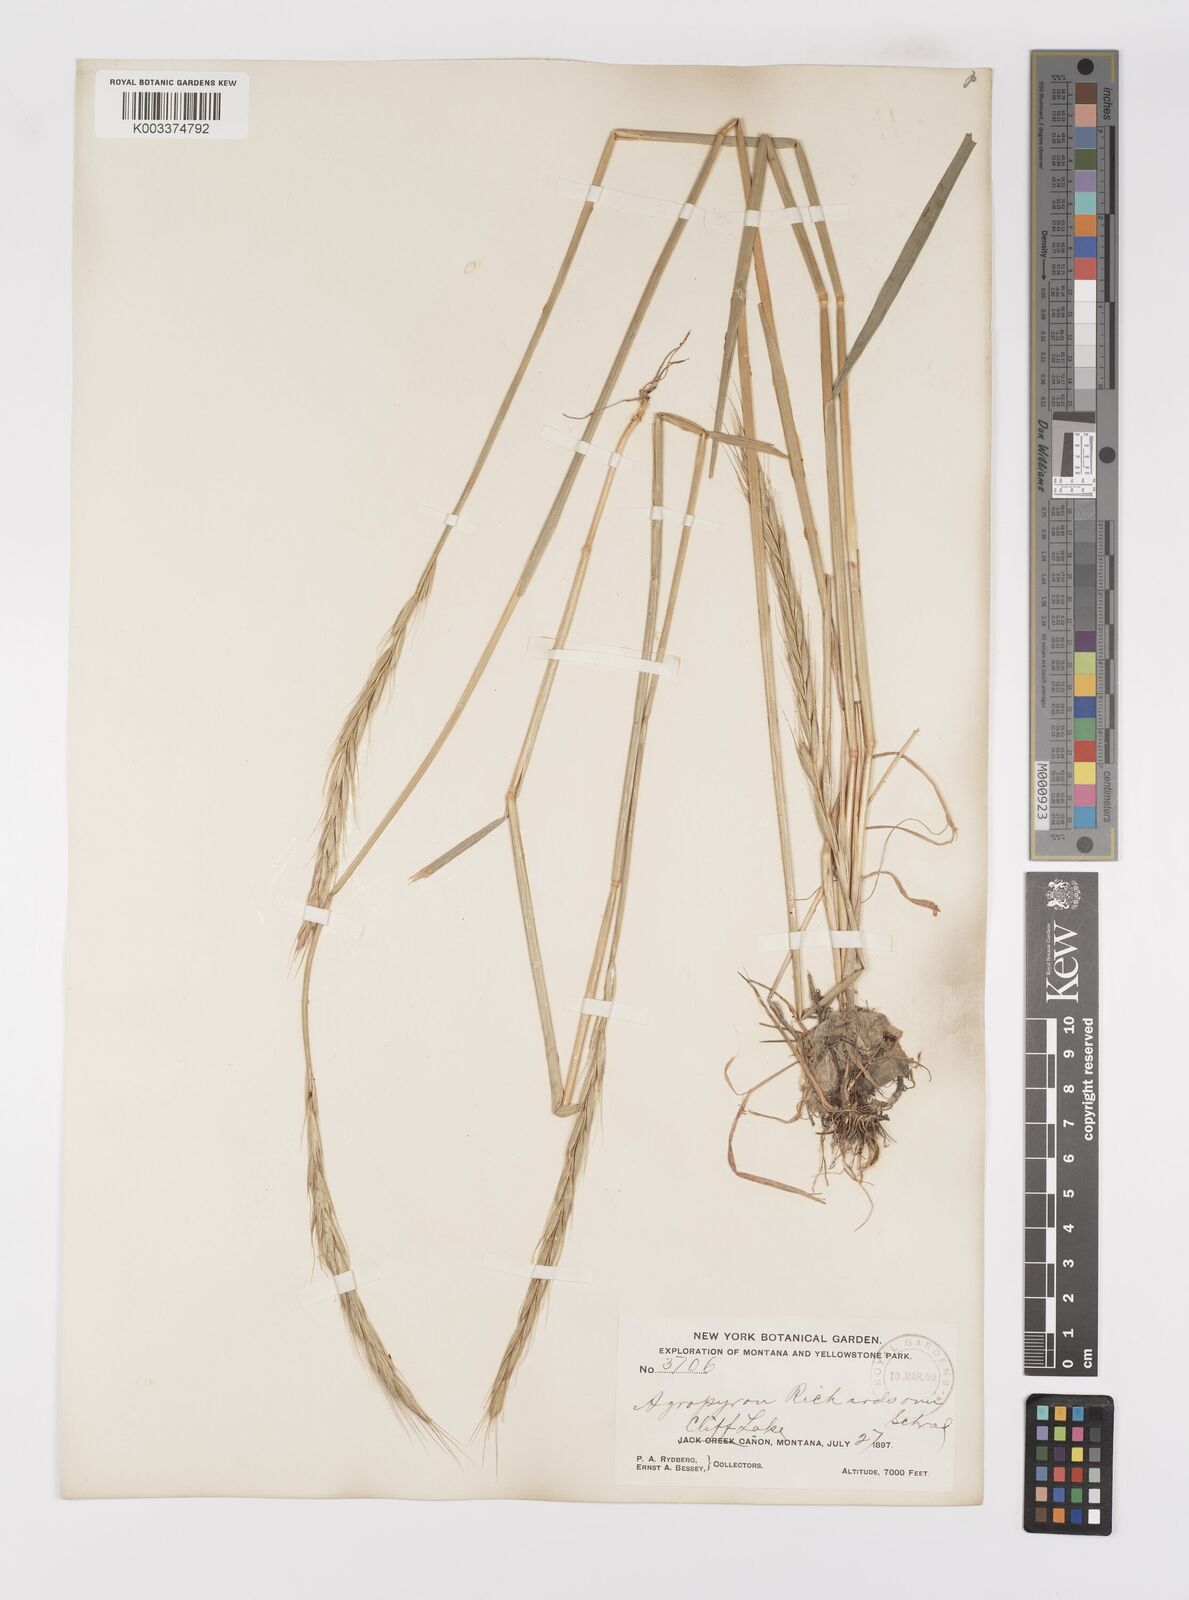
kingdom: Plantae
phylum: Tracheophyta
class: Liliopsida
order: Poales
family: Poaceae
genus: Elymus
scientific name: Elymus violaceus
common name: Arctic wheatgrass
